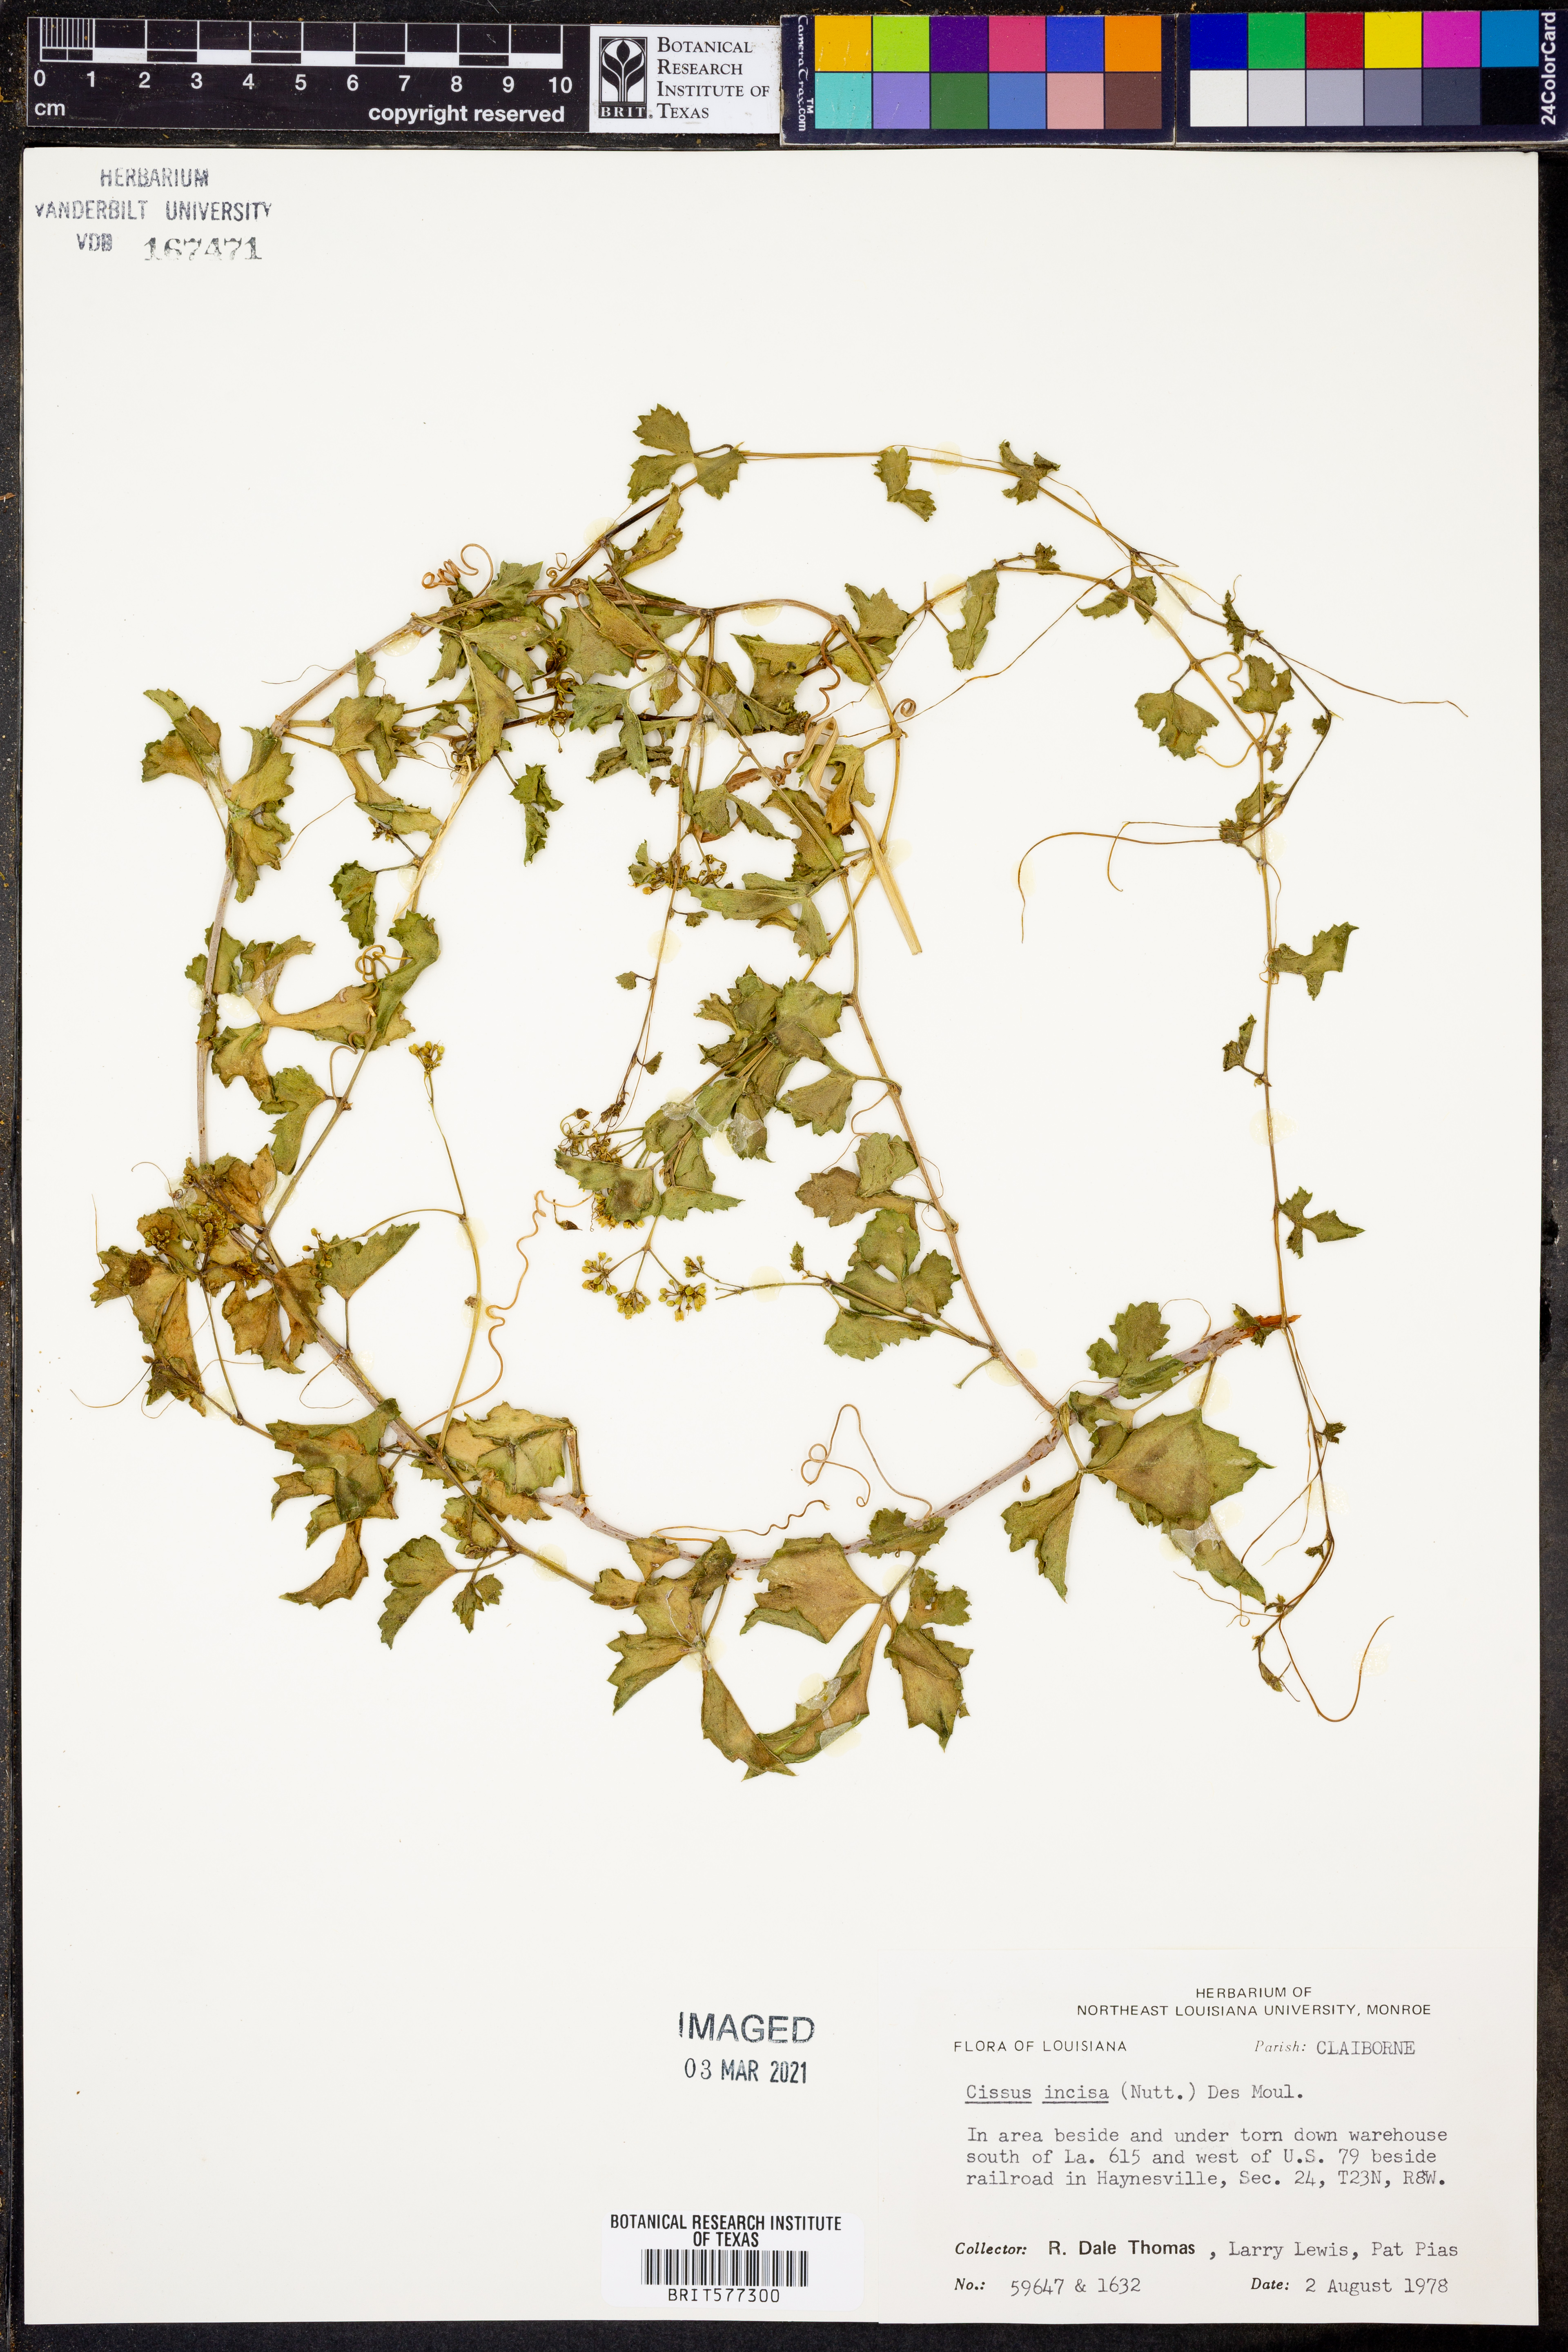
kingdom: Plantae
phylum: Tracheophyta
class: Magnoliopsida
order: Vitales
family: Vitaceae
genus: Cissus
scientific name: Cissus trifoliata
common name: Vine-sorrel
